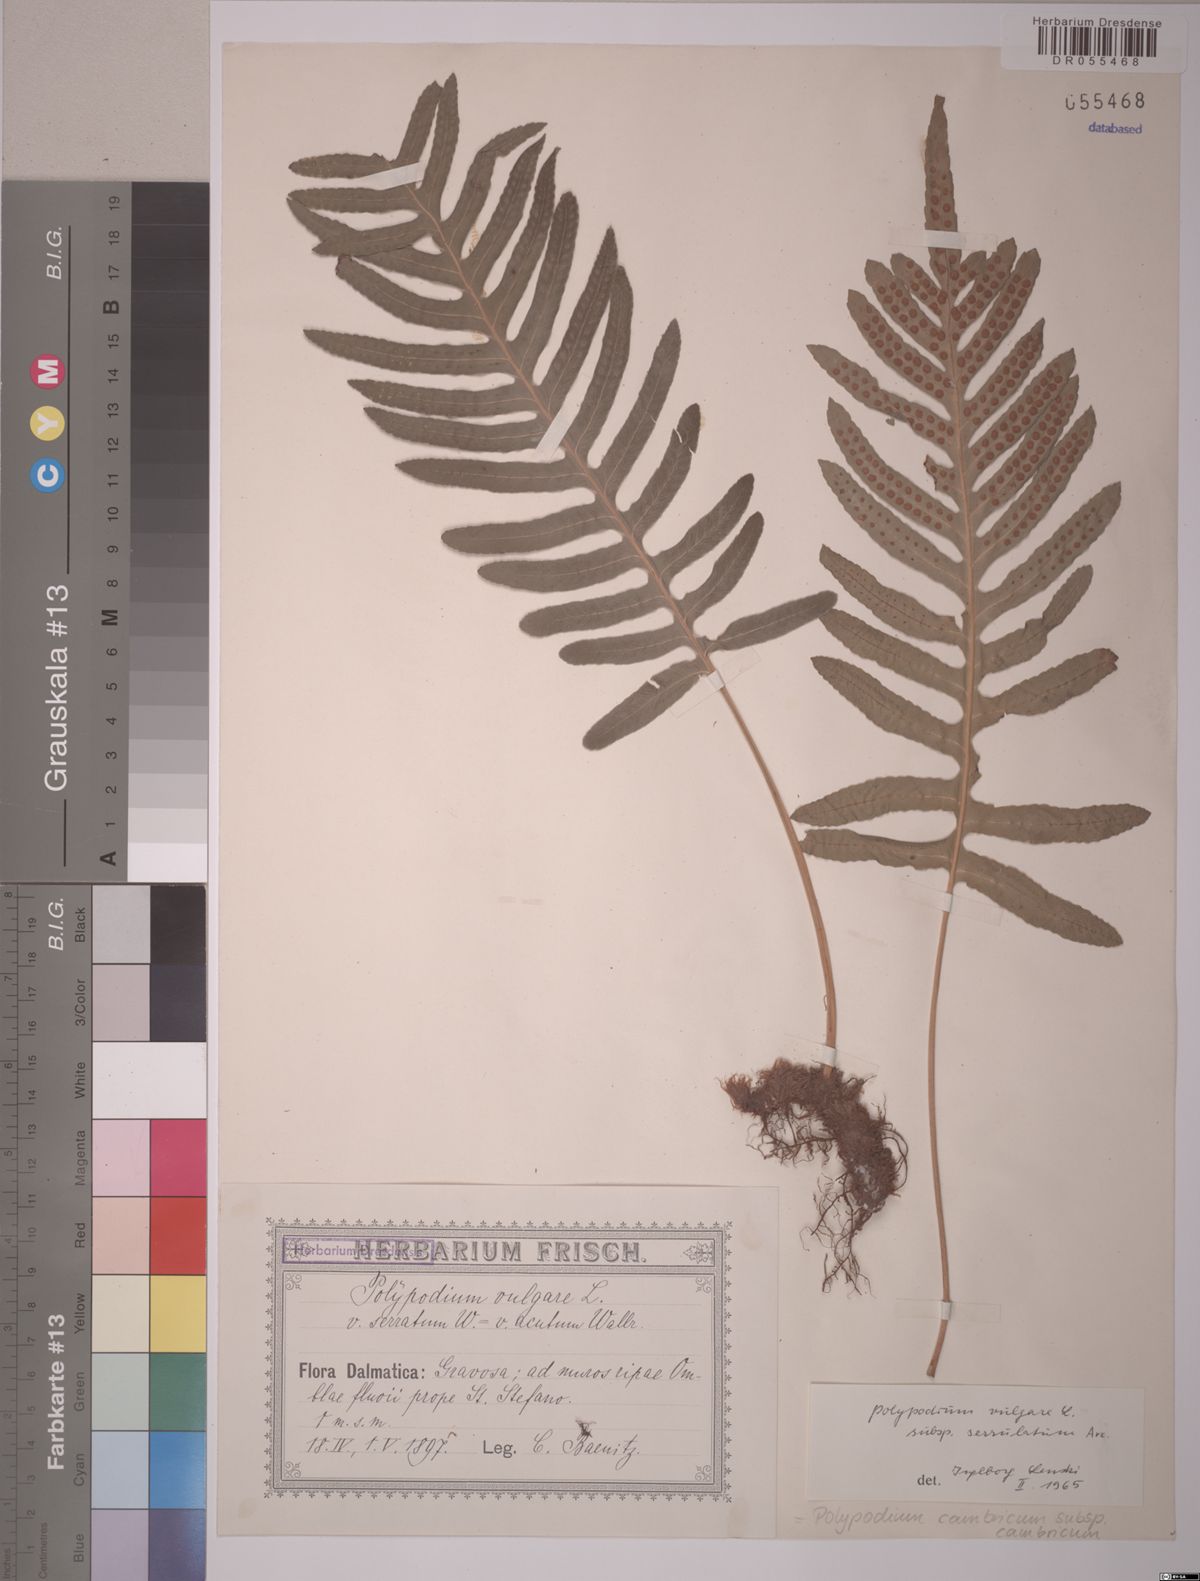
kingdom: Plantae
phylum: Tracheophyta
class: Polypodiopsida
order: Polypodiales
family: Polypodiaceae
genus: Polypodium
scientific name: Polypodium cambricum
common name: Southern polypody
